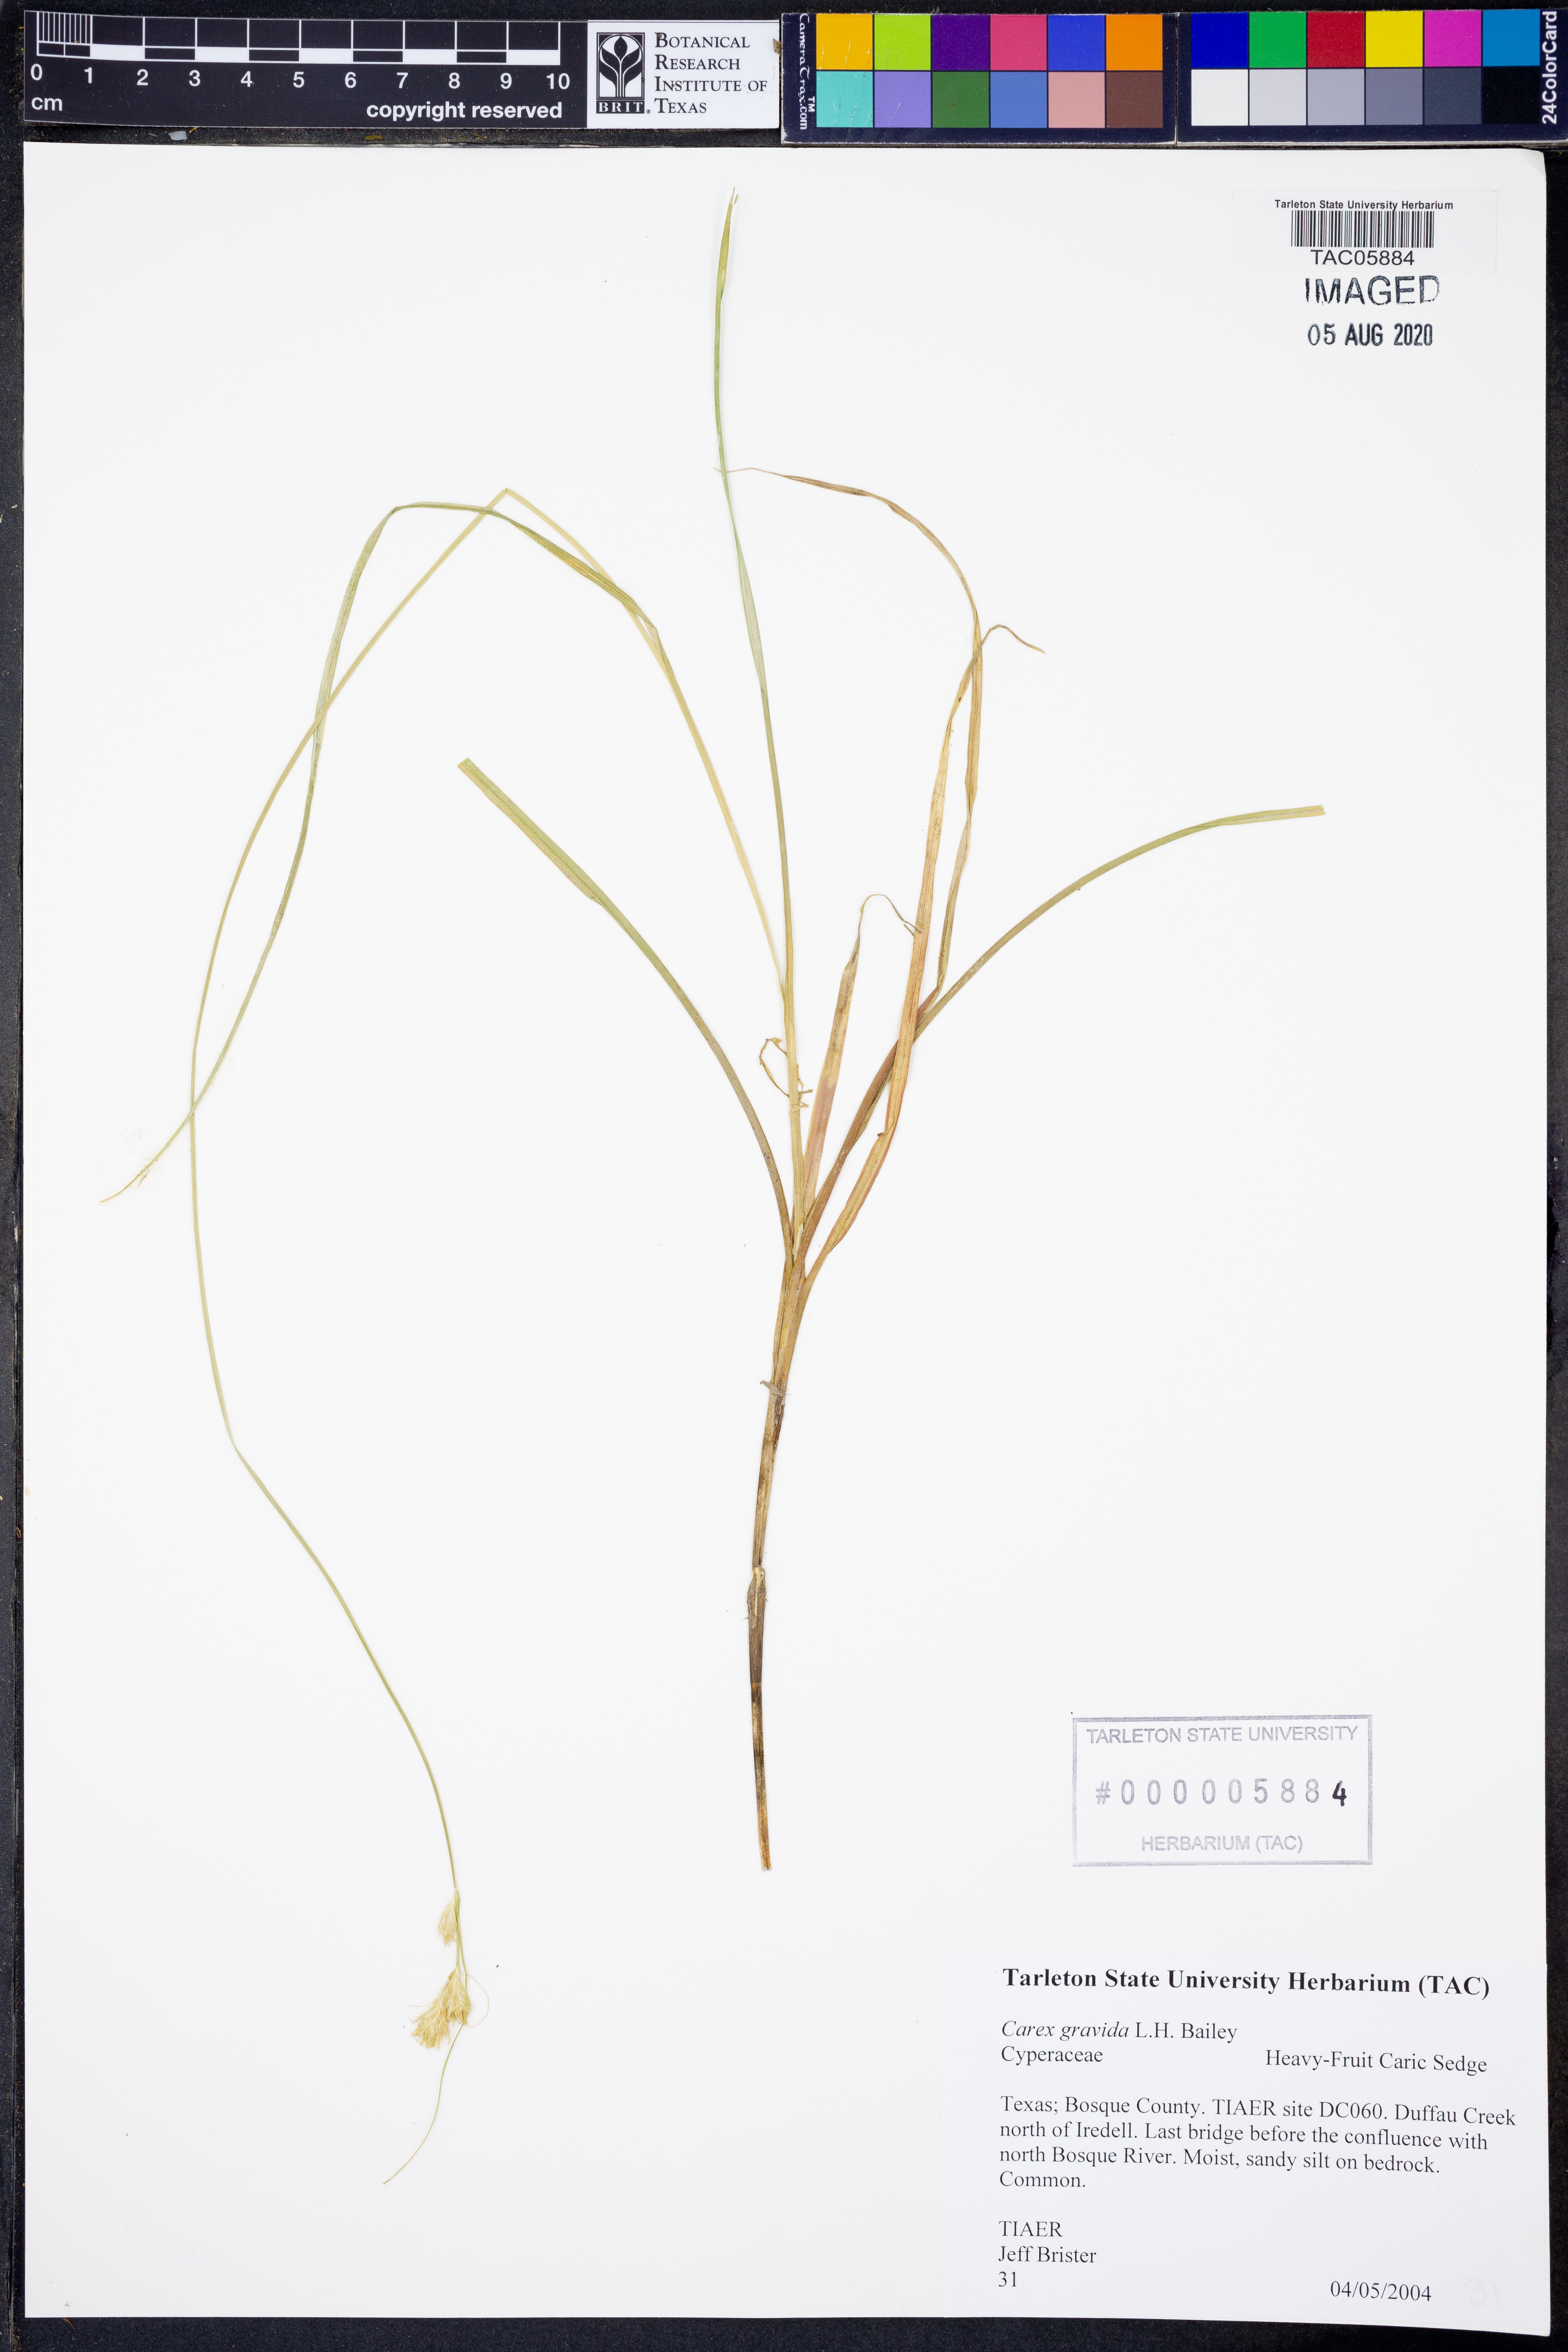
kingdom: Plantae
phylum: Tracheophyta
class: Liliopsida
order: Poales
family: Cyperaceae
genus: Carex
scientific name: Carex gravida
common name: Heavy sedge
